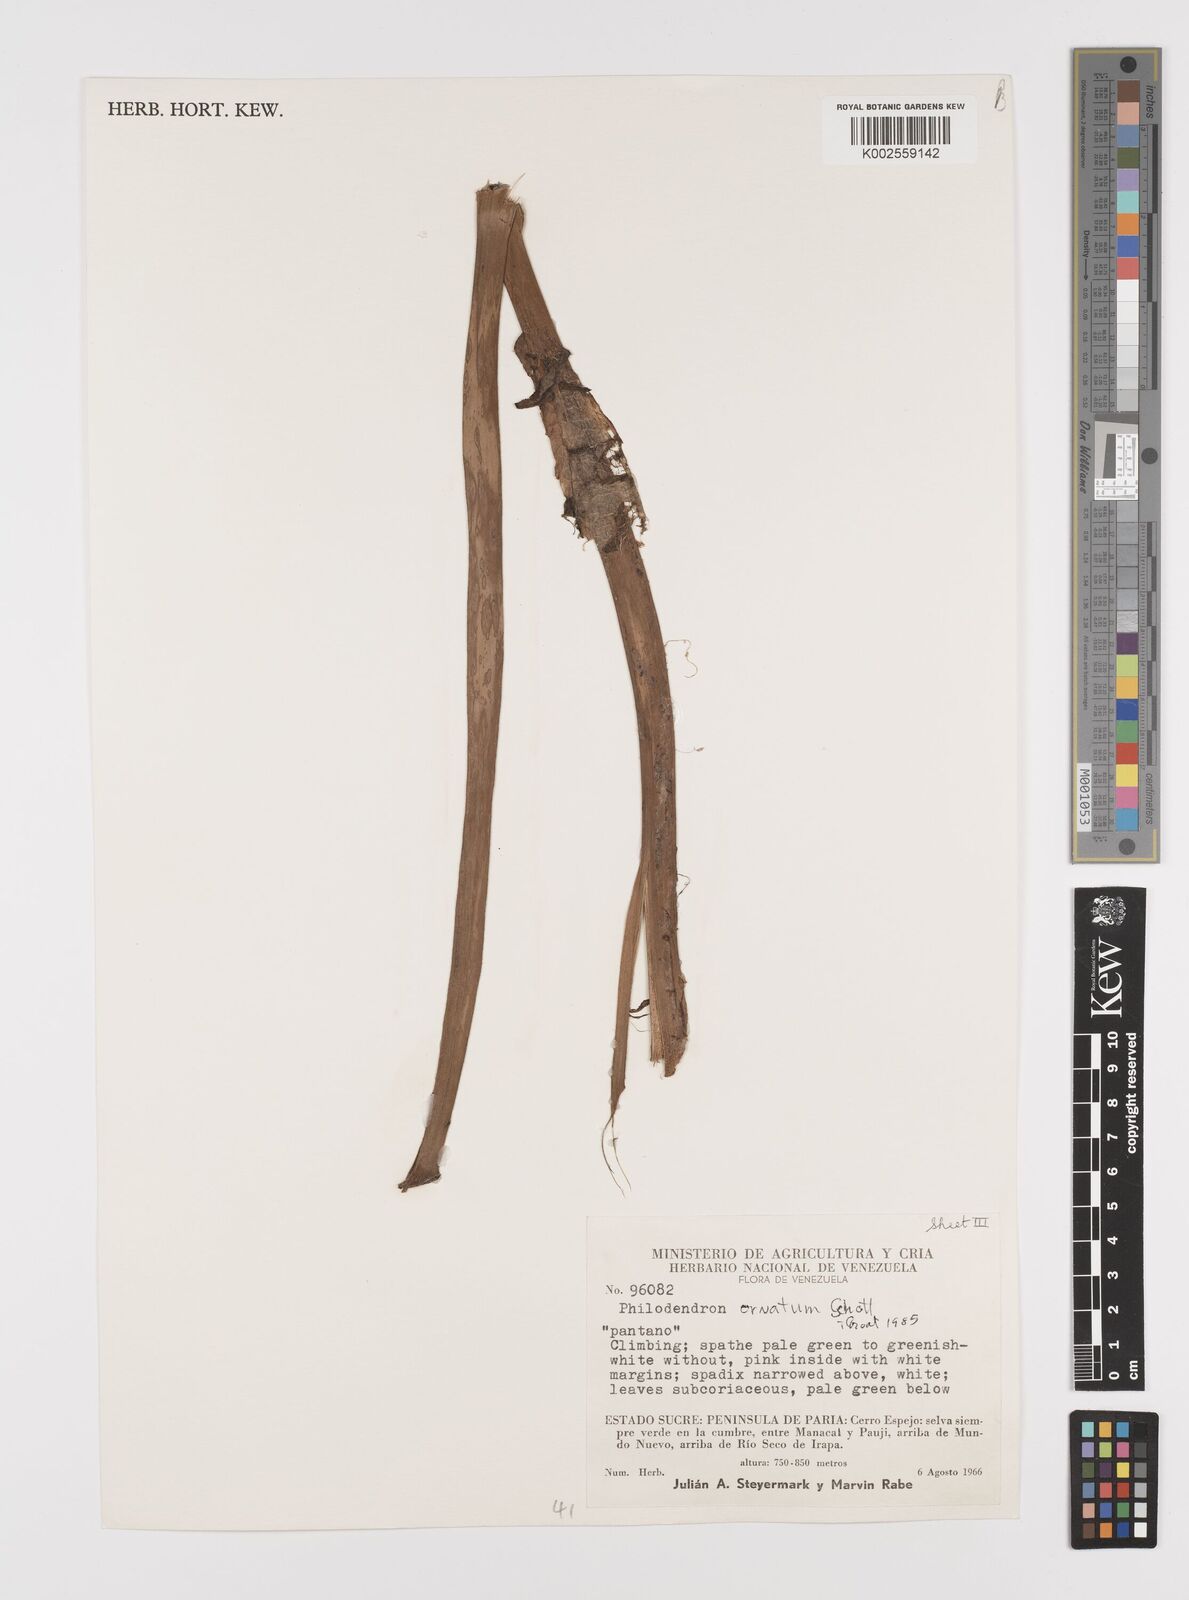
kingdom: Plantae
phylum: Tracheophyta
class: Liliopsida
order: Alismatales
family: Araceae
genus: Philodendron
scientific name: Philodendron ornatum
